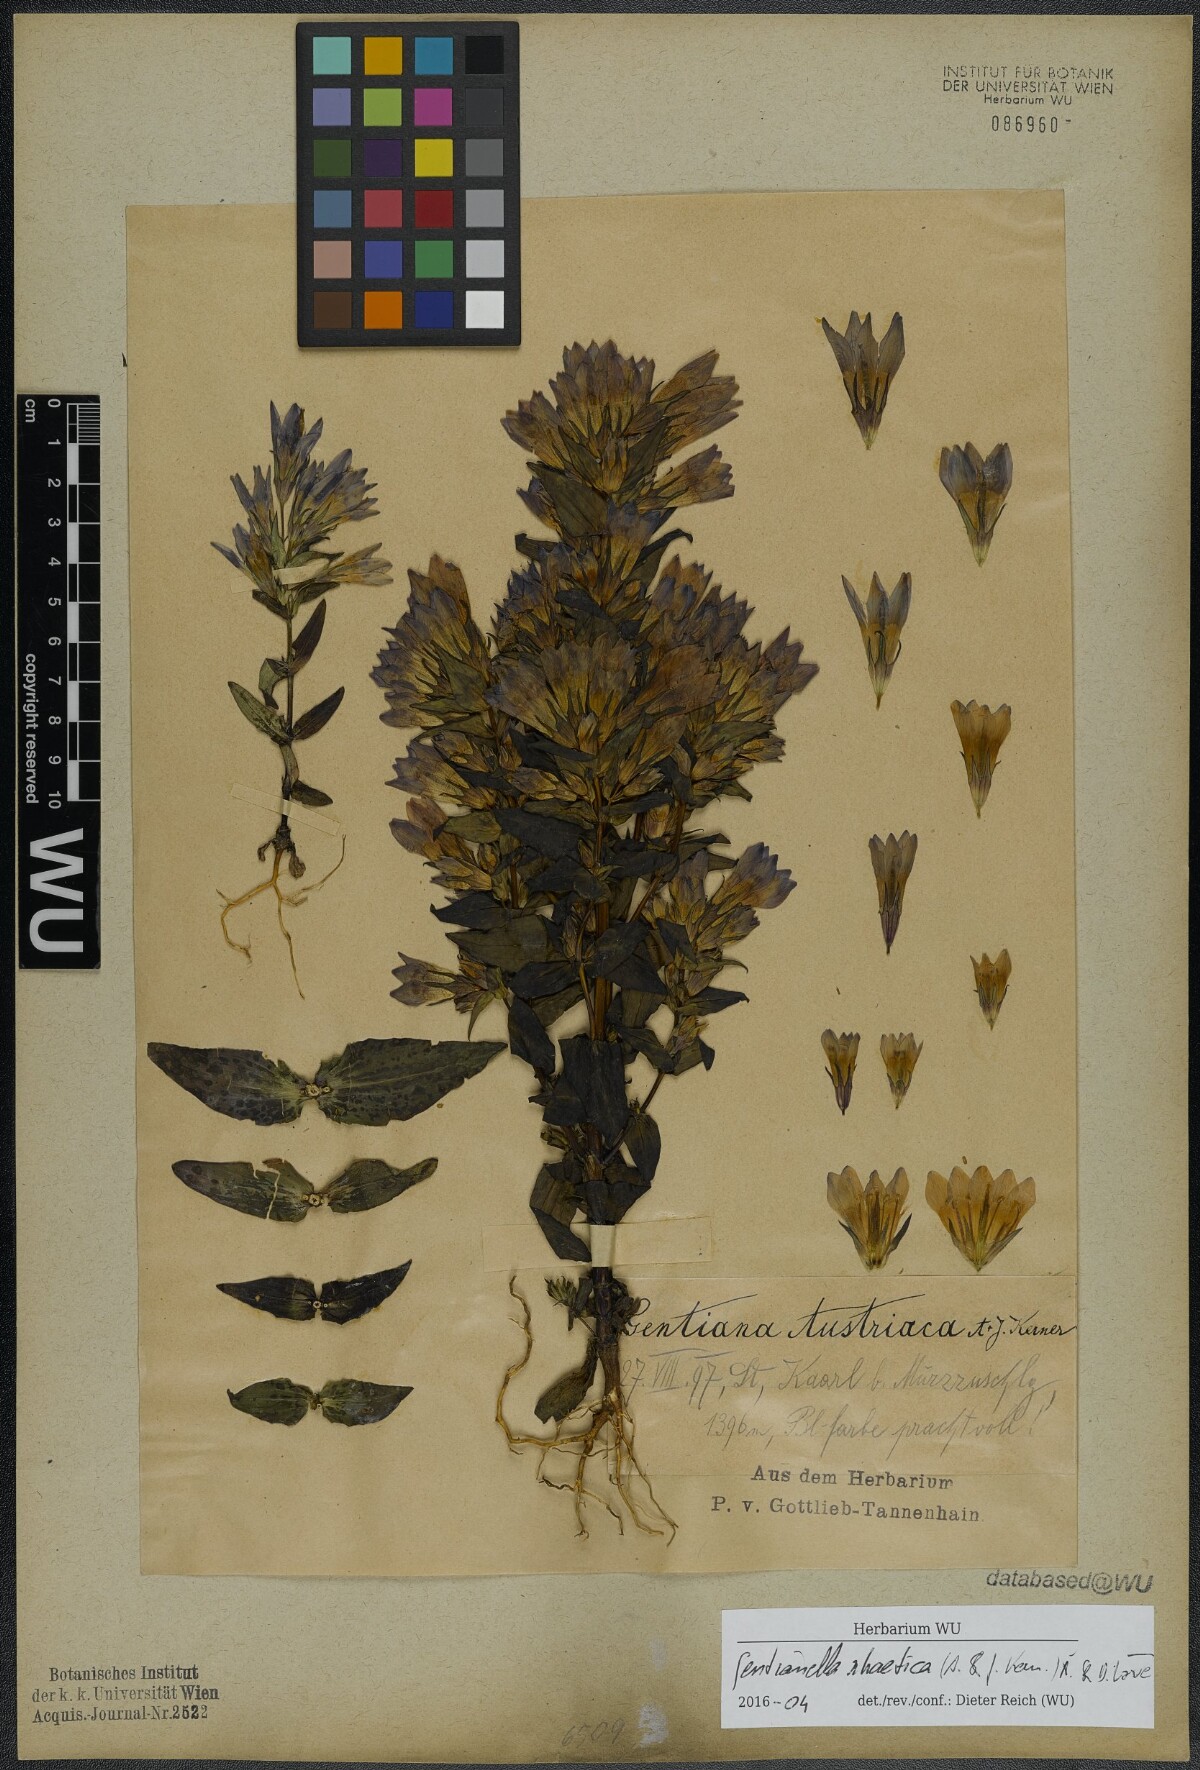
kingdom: Plantae
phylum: Tracheophyta
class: Magnoliopsida
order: Gentianales
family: Gentianaceae
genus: Gentianella
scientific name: Gentianella rhaetica
